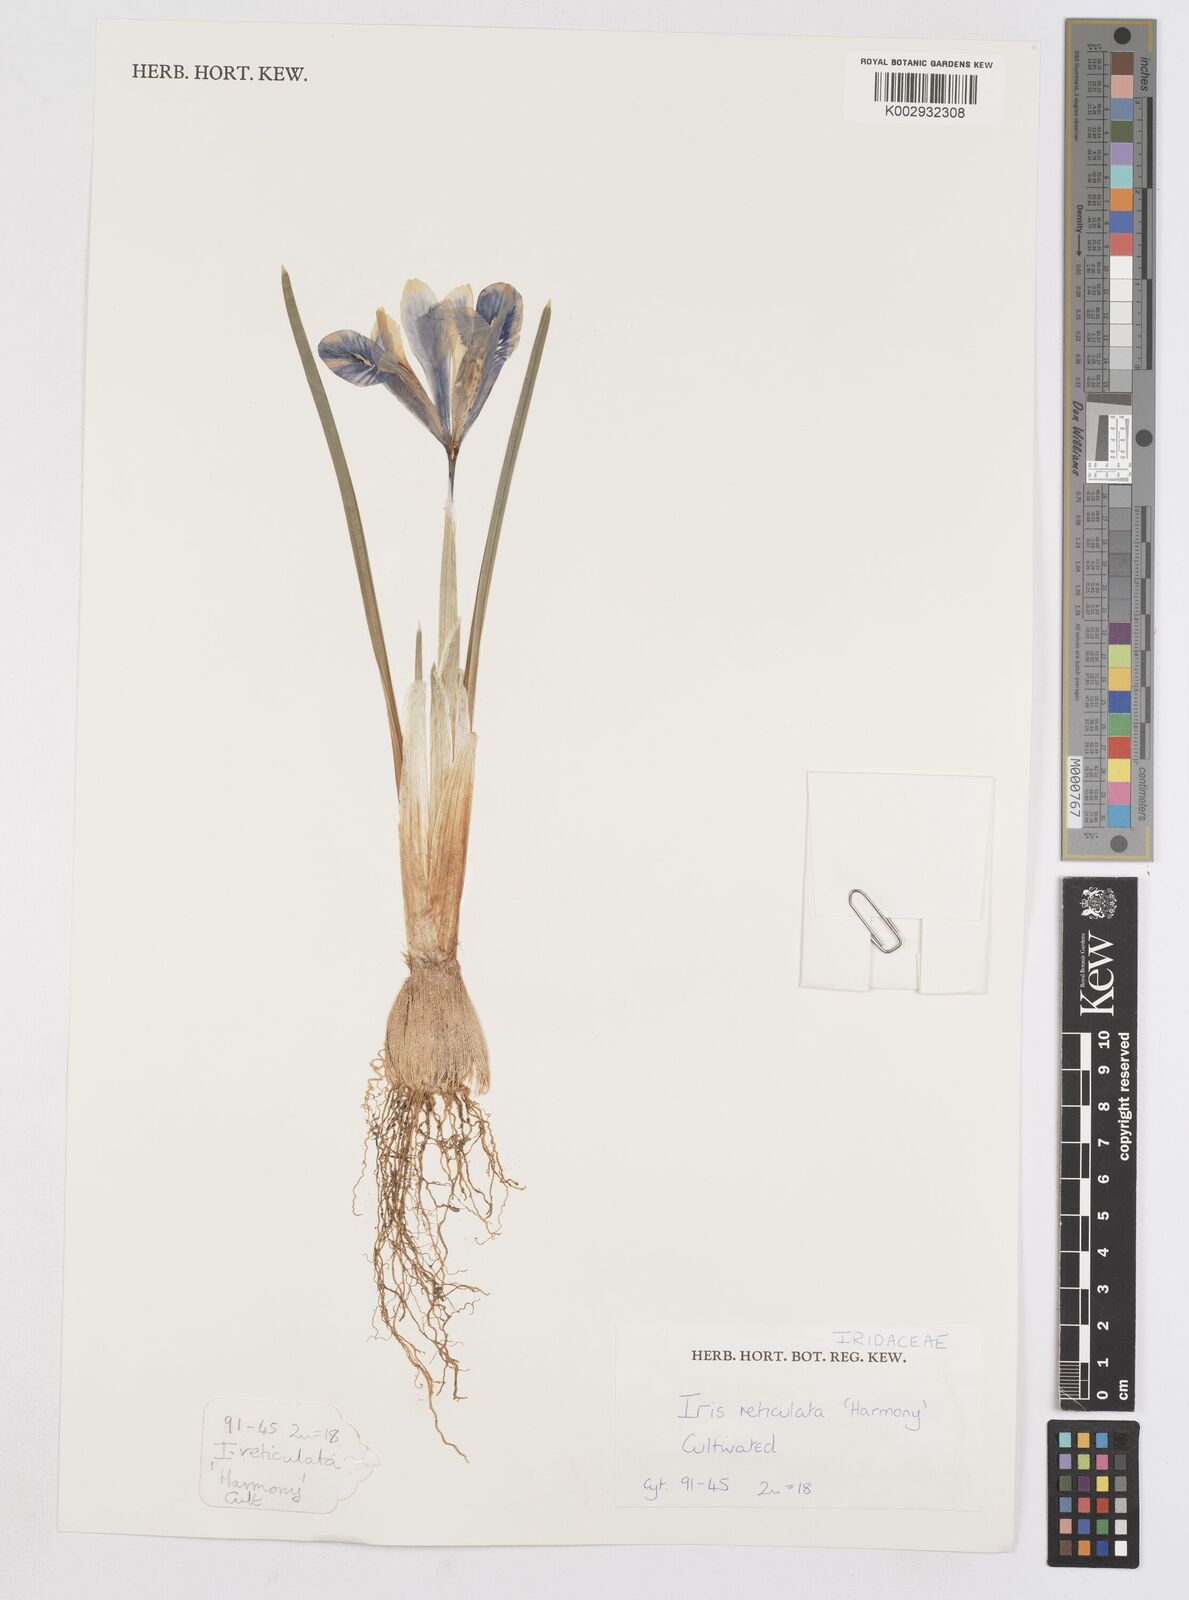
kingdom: Plantae
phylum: Tracheophyta
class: Liliopsida
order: Asparagales
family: Iridaceae
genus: Iris
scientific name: Iris reticulata
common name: Netted iris
